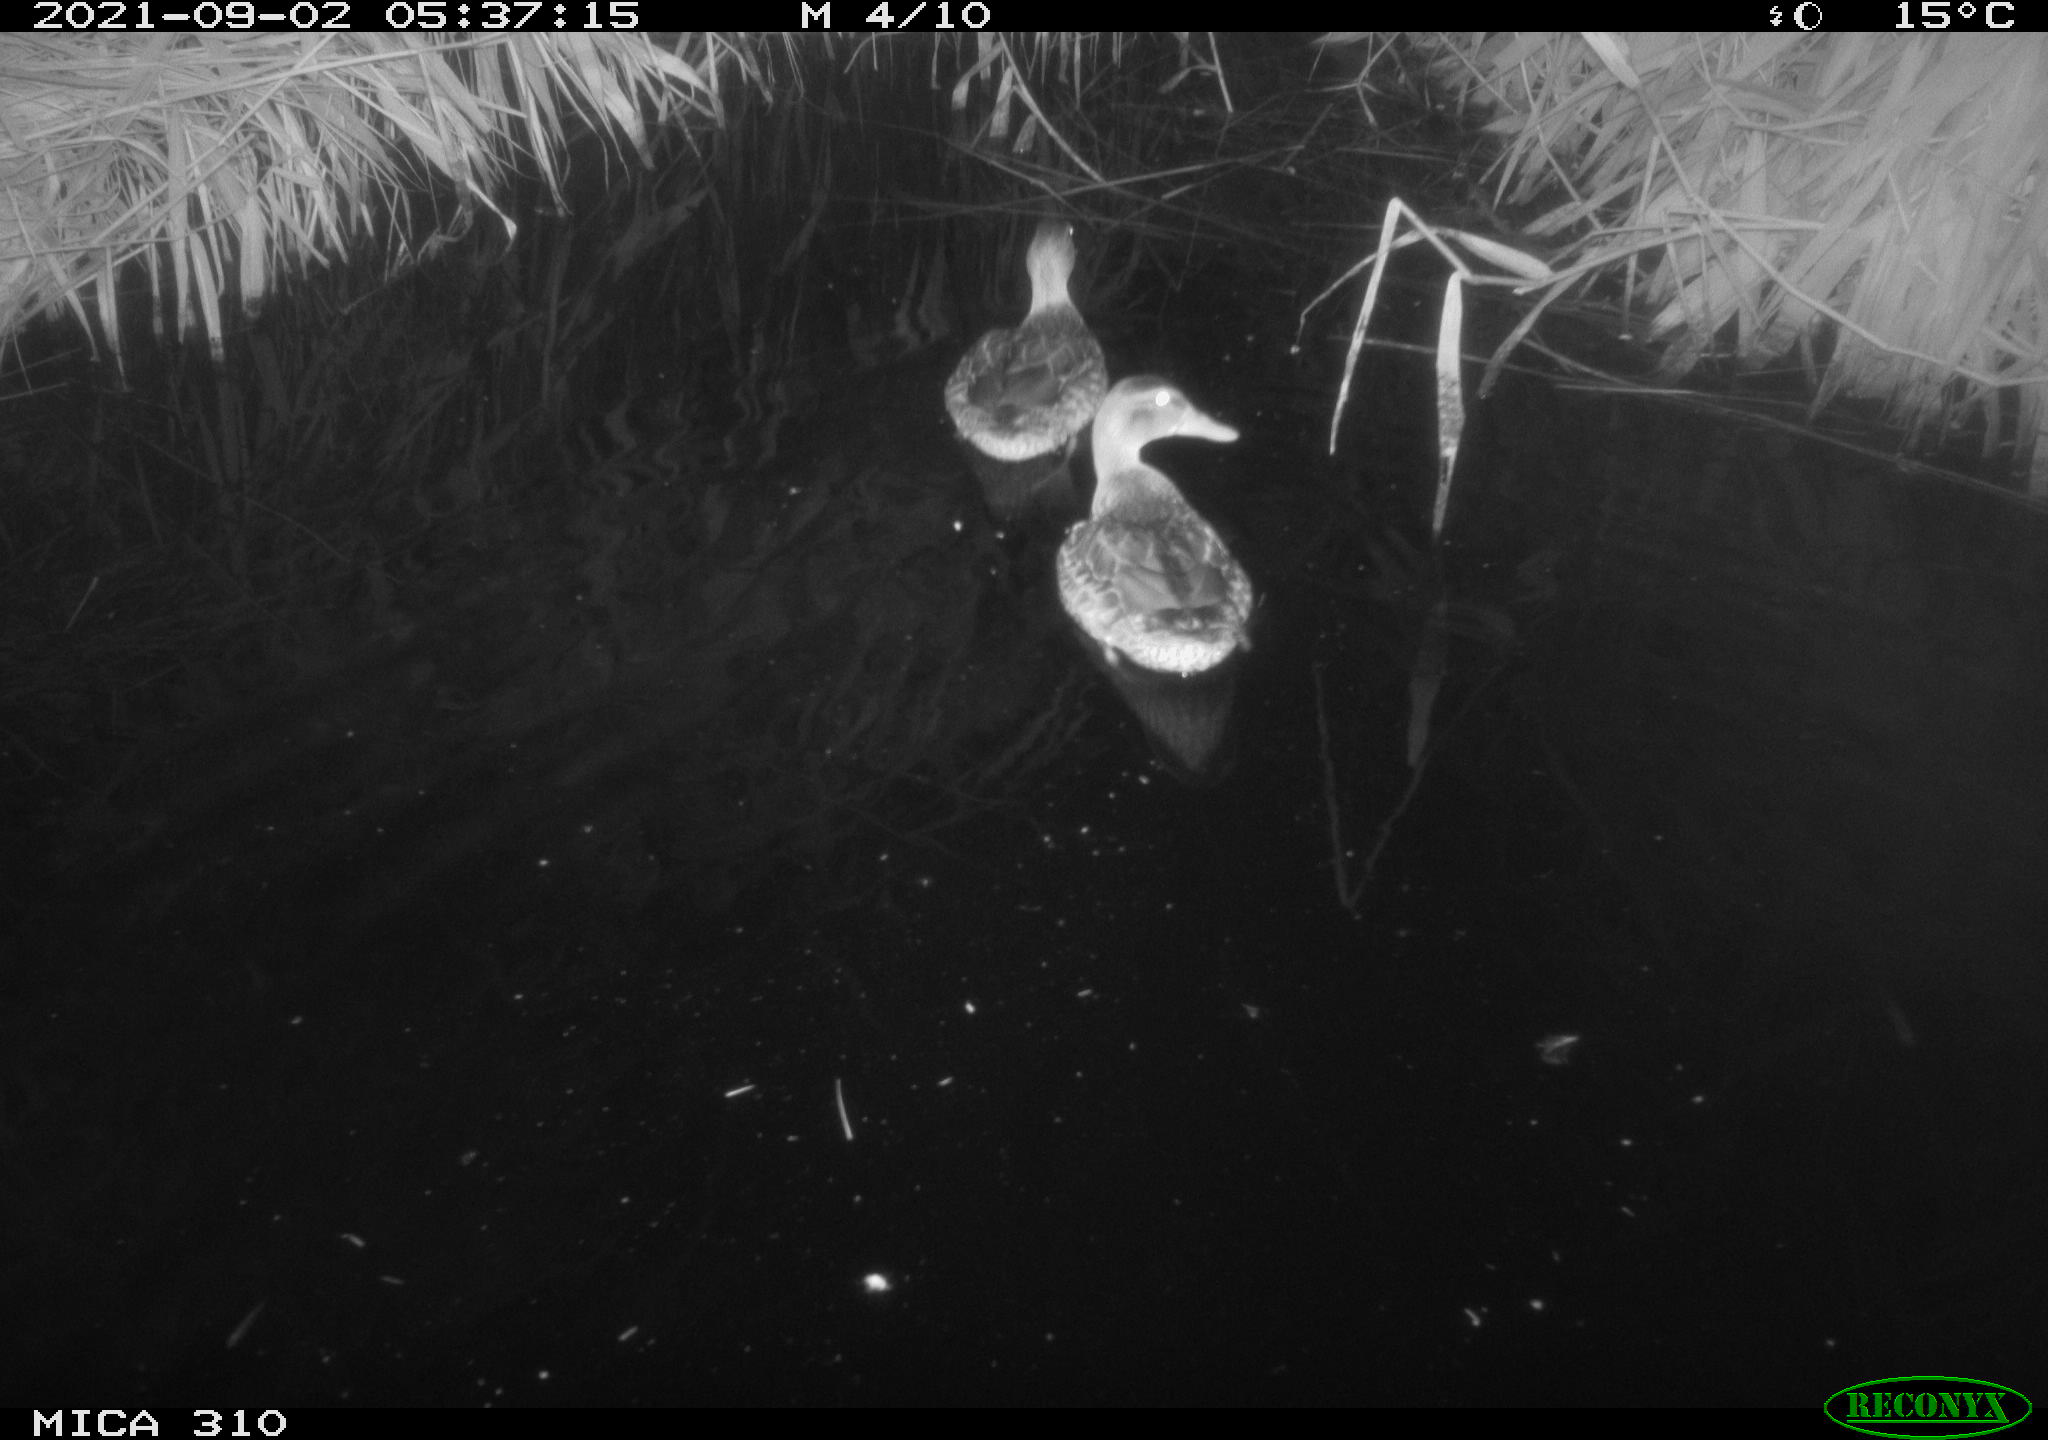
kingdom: Animalia
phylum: Chordata
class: Aves
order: Anseriformes
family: Anatidae
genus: Mareca
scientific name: Mareca strepera
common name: Gadwall
